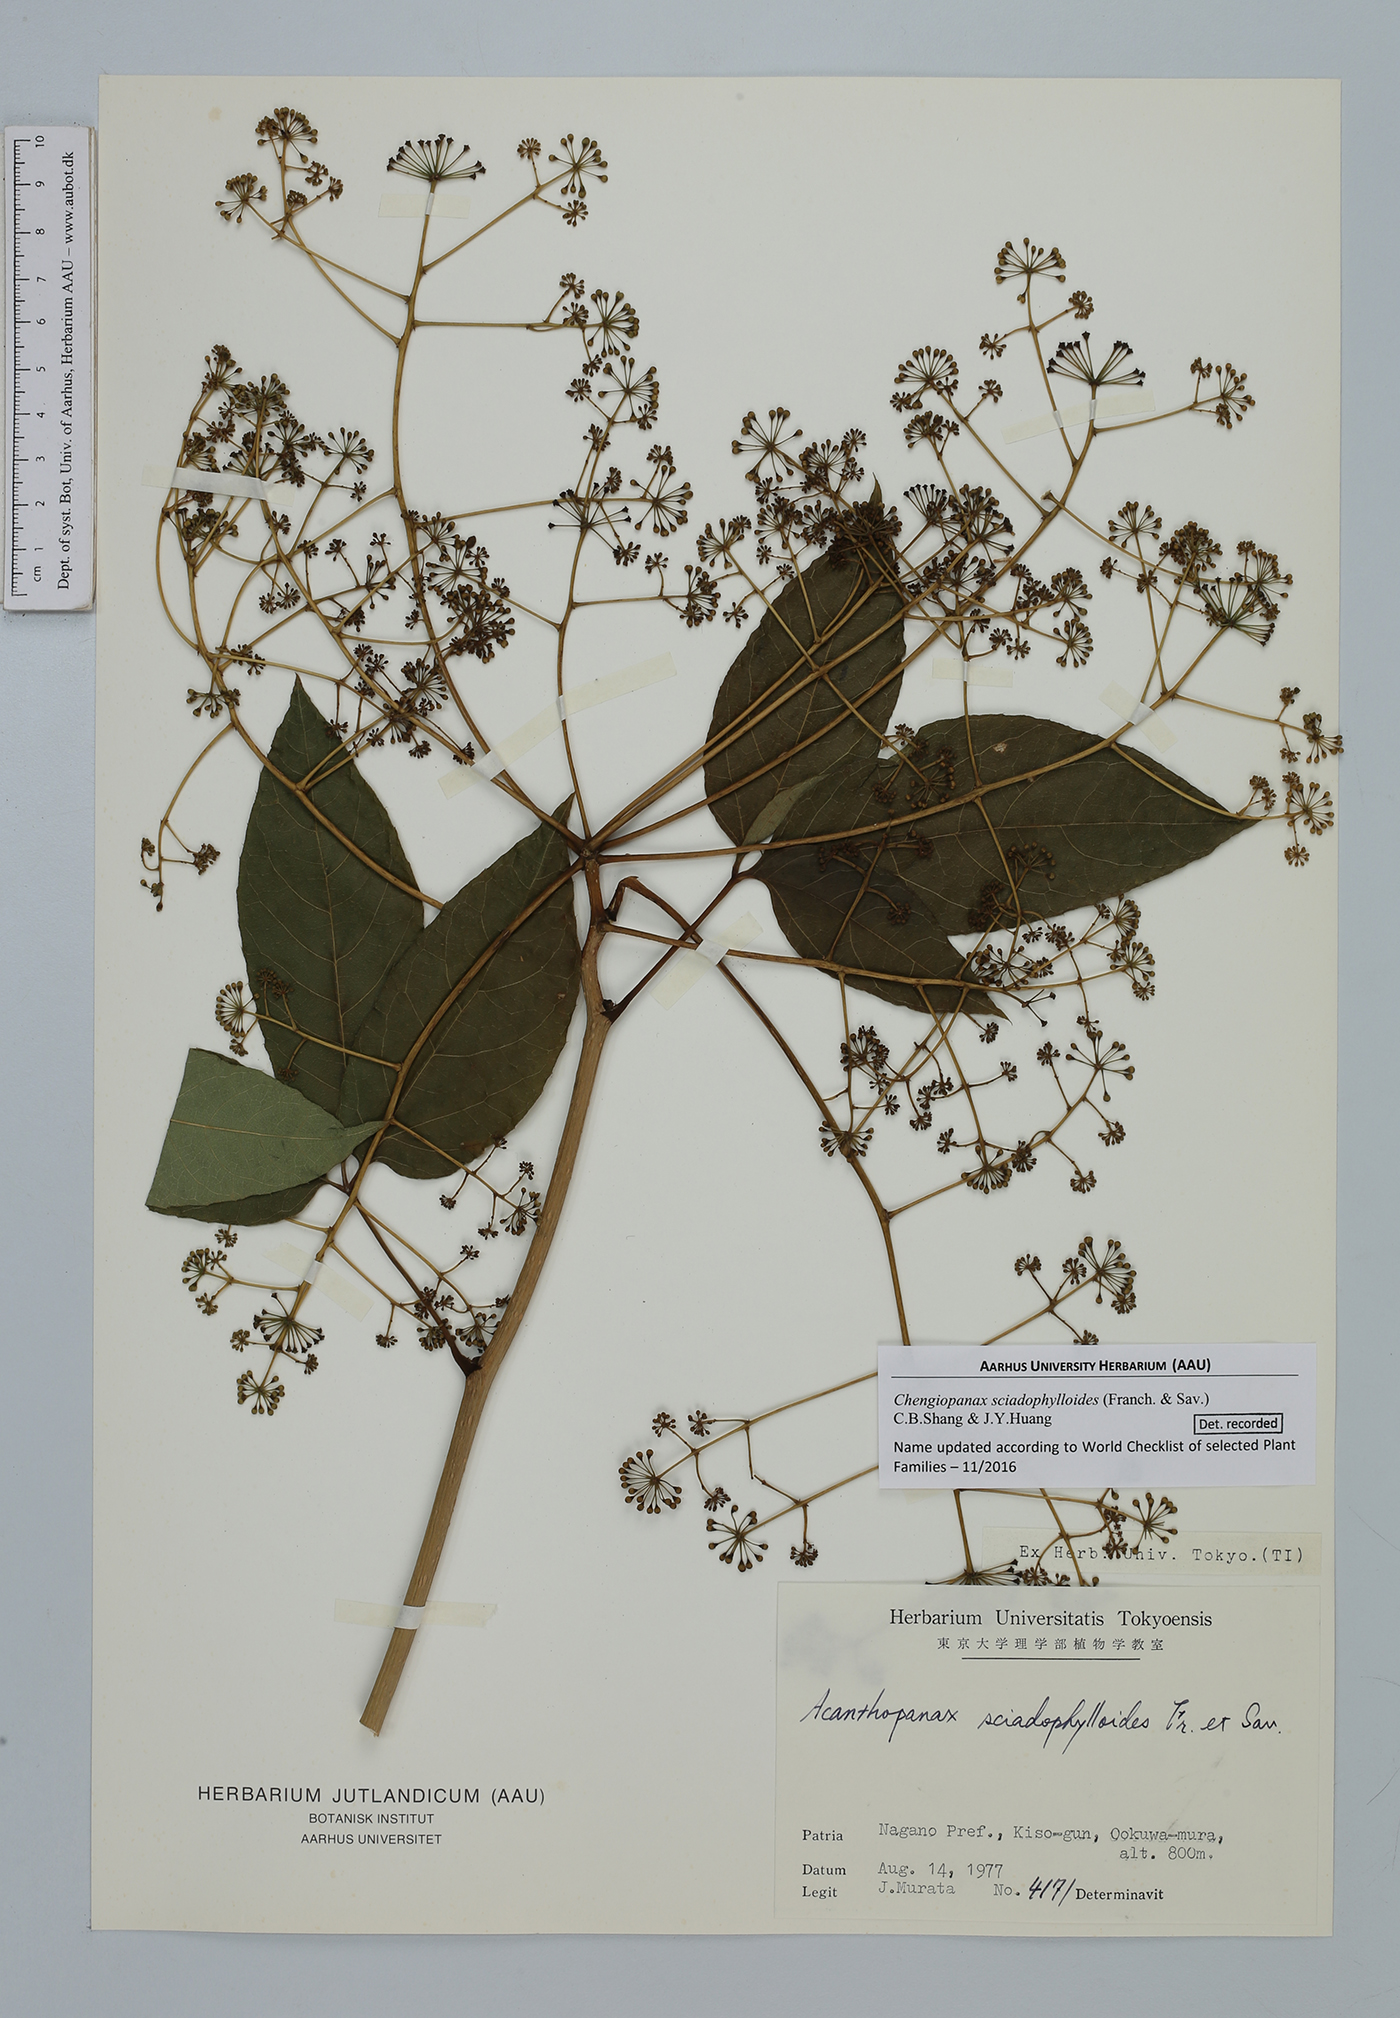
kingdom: Plantae
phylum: Tracheophyta
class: Magnoliopsida
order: Apiales
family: Araliaceae
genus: Chengiopanax
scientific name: Chengiopanax sciadophylloides
